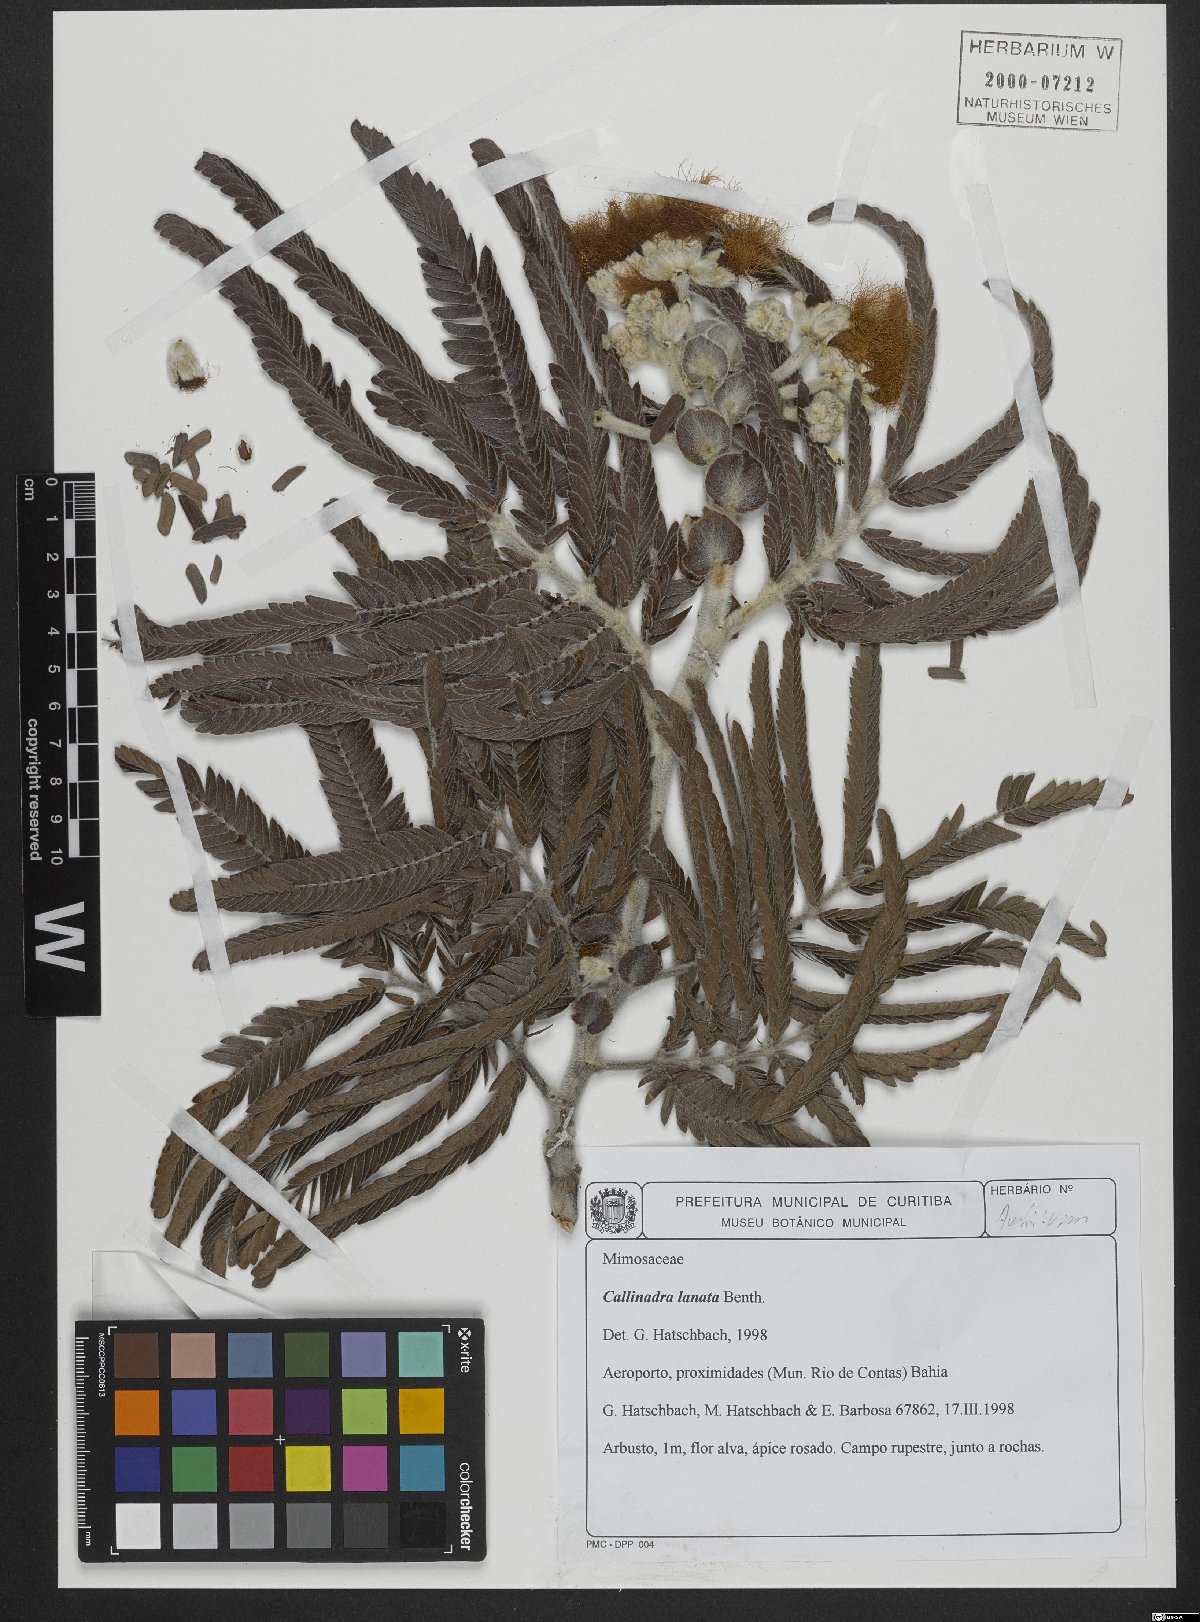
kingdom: Plantae
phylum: Tracheophyta
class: Magnoliopsida
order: Fabales
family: Fabaceae
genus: Calliandra
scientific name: Calliandra lanata
